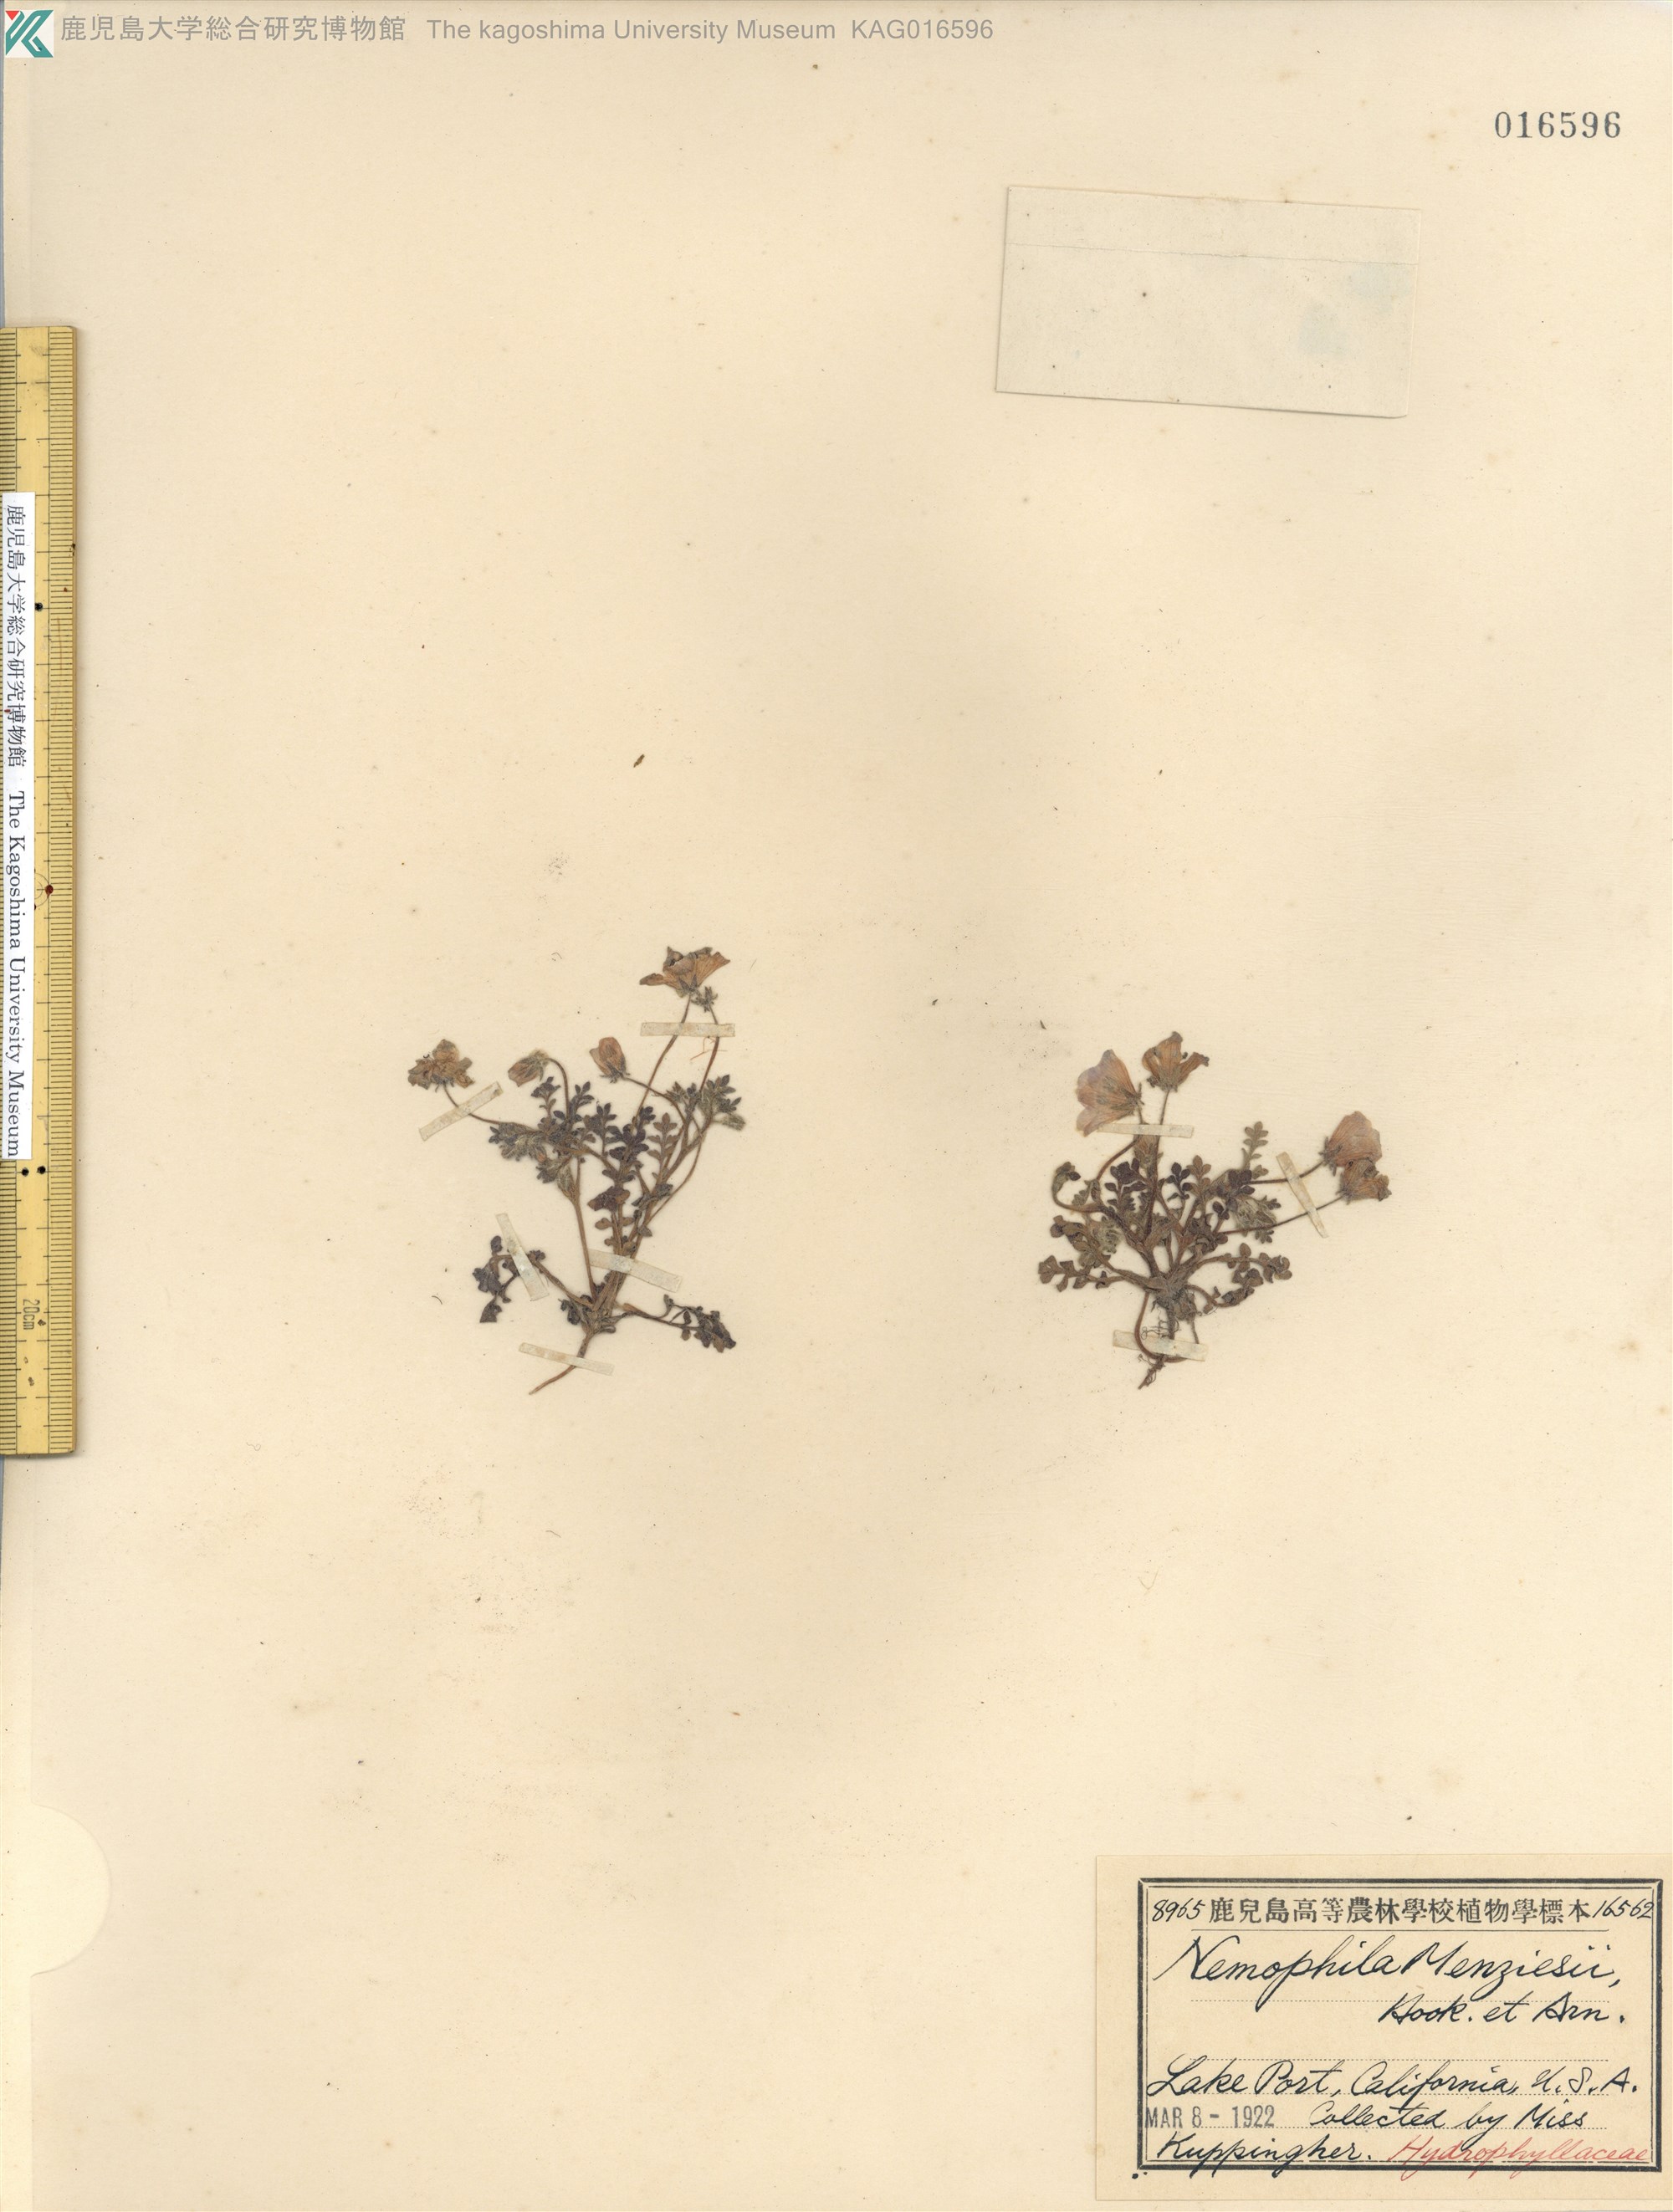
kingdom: Plantae
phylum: Tracheophyta
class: Magnoliopsida
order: Boraginales
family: Hydrophyllaceae
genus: Nemophila
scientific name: Nemophila menziesii
